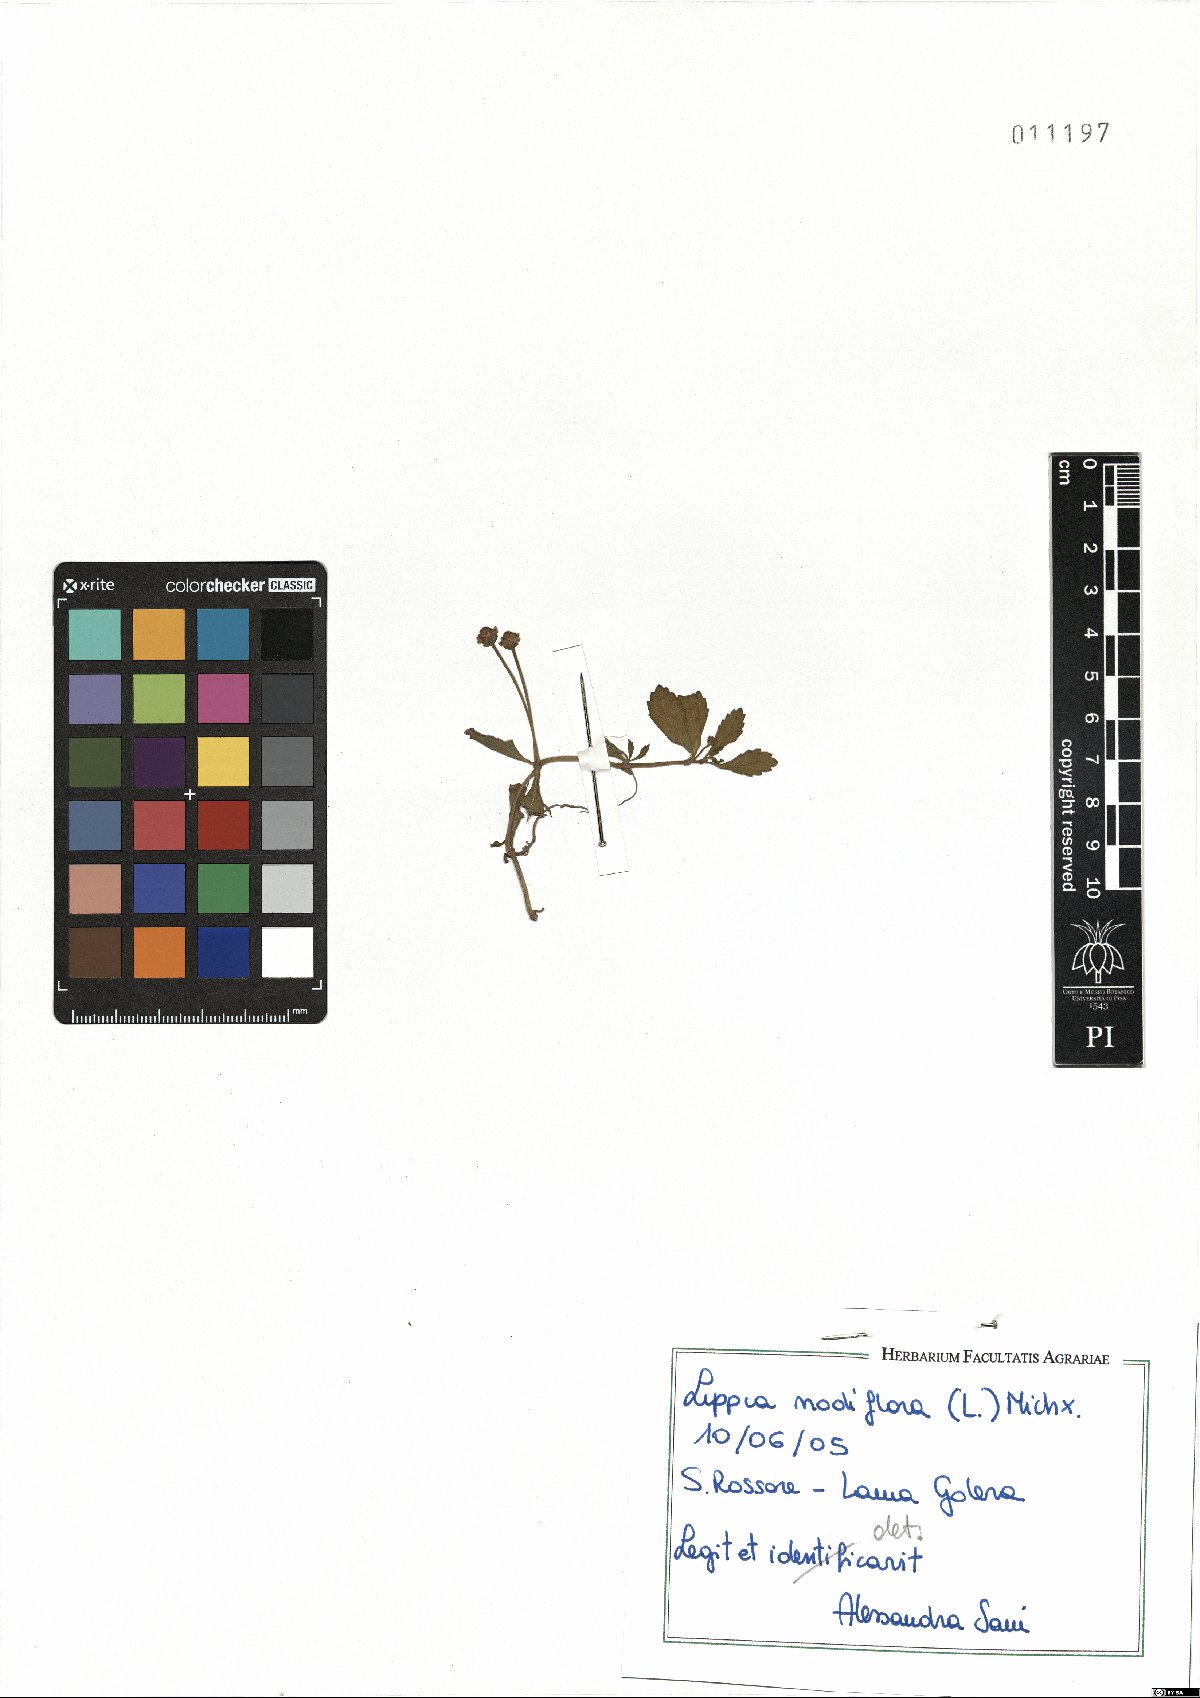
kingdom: Plantae
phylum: Tracheophyta
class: Magnoliopsida
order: Lamiales
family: Verbenaceae
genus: Phyla
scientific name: Phyla nodiflora
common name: Frogfruit
